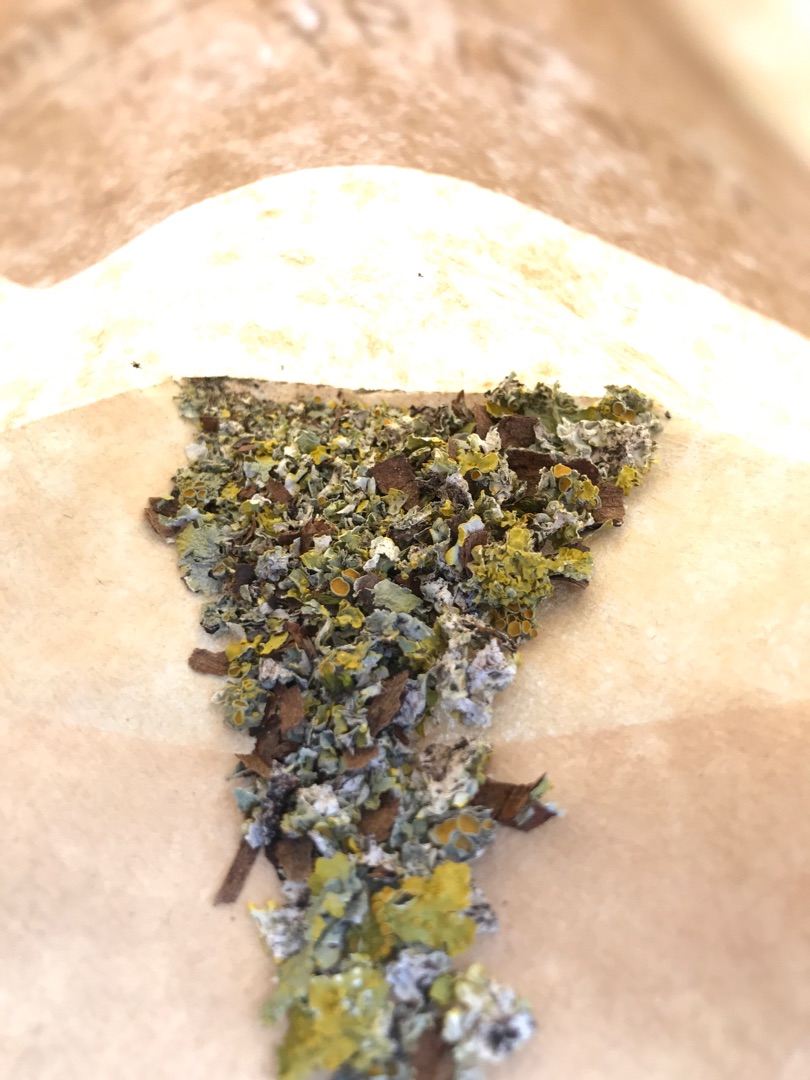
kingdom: Fungi
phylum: Ascomycota
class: Lecanoromycetes
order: Teloschistales
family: Teloschistaceae
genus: Xanthoria
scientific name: Xanthoria parietina
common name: Almindelig væggelav
